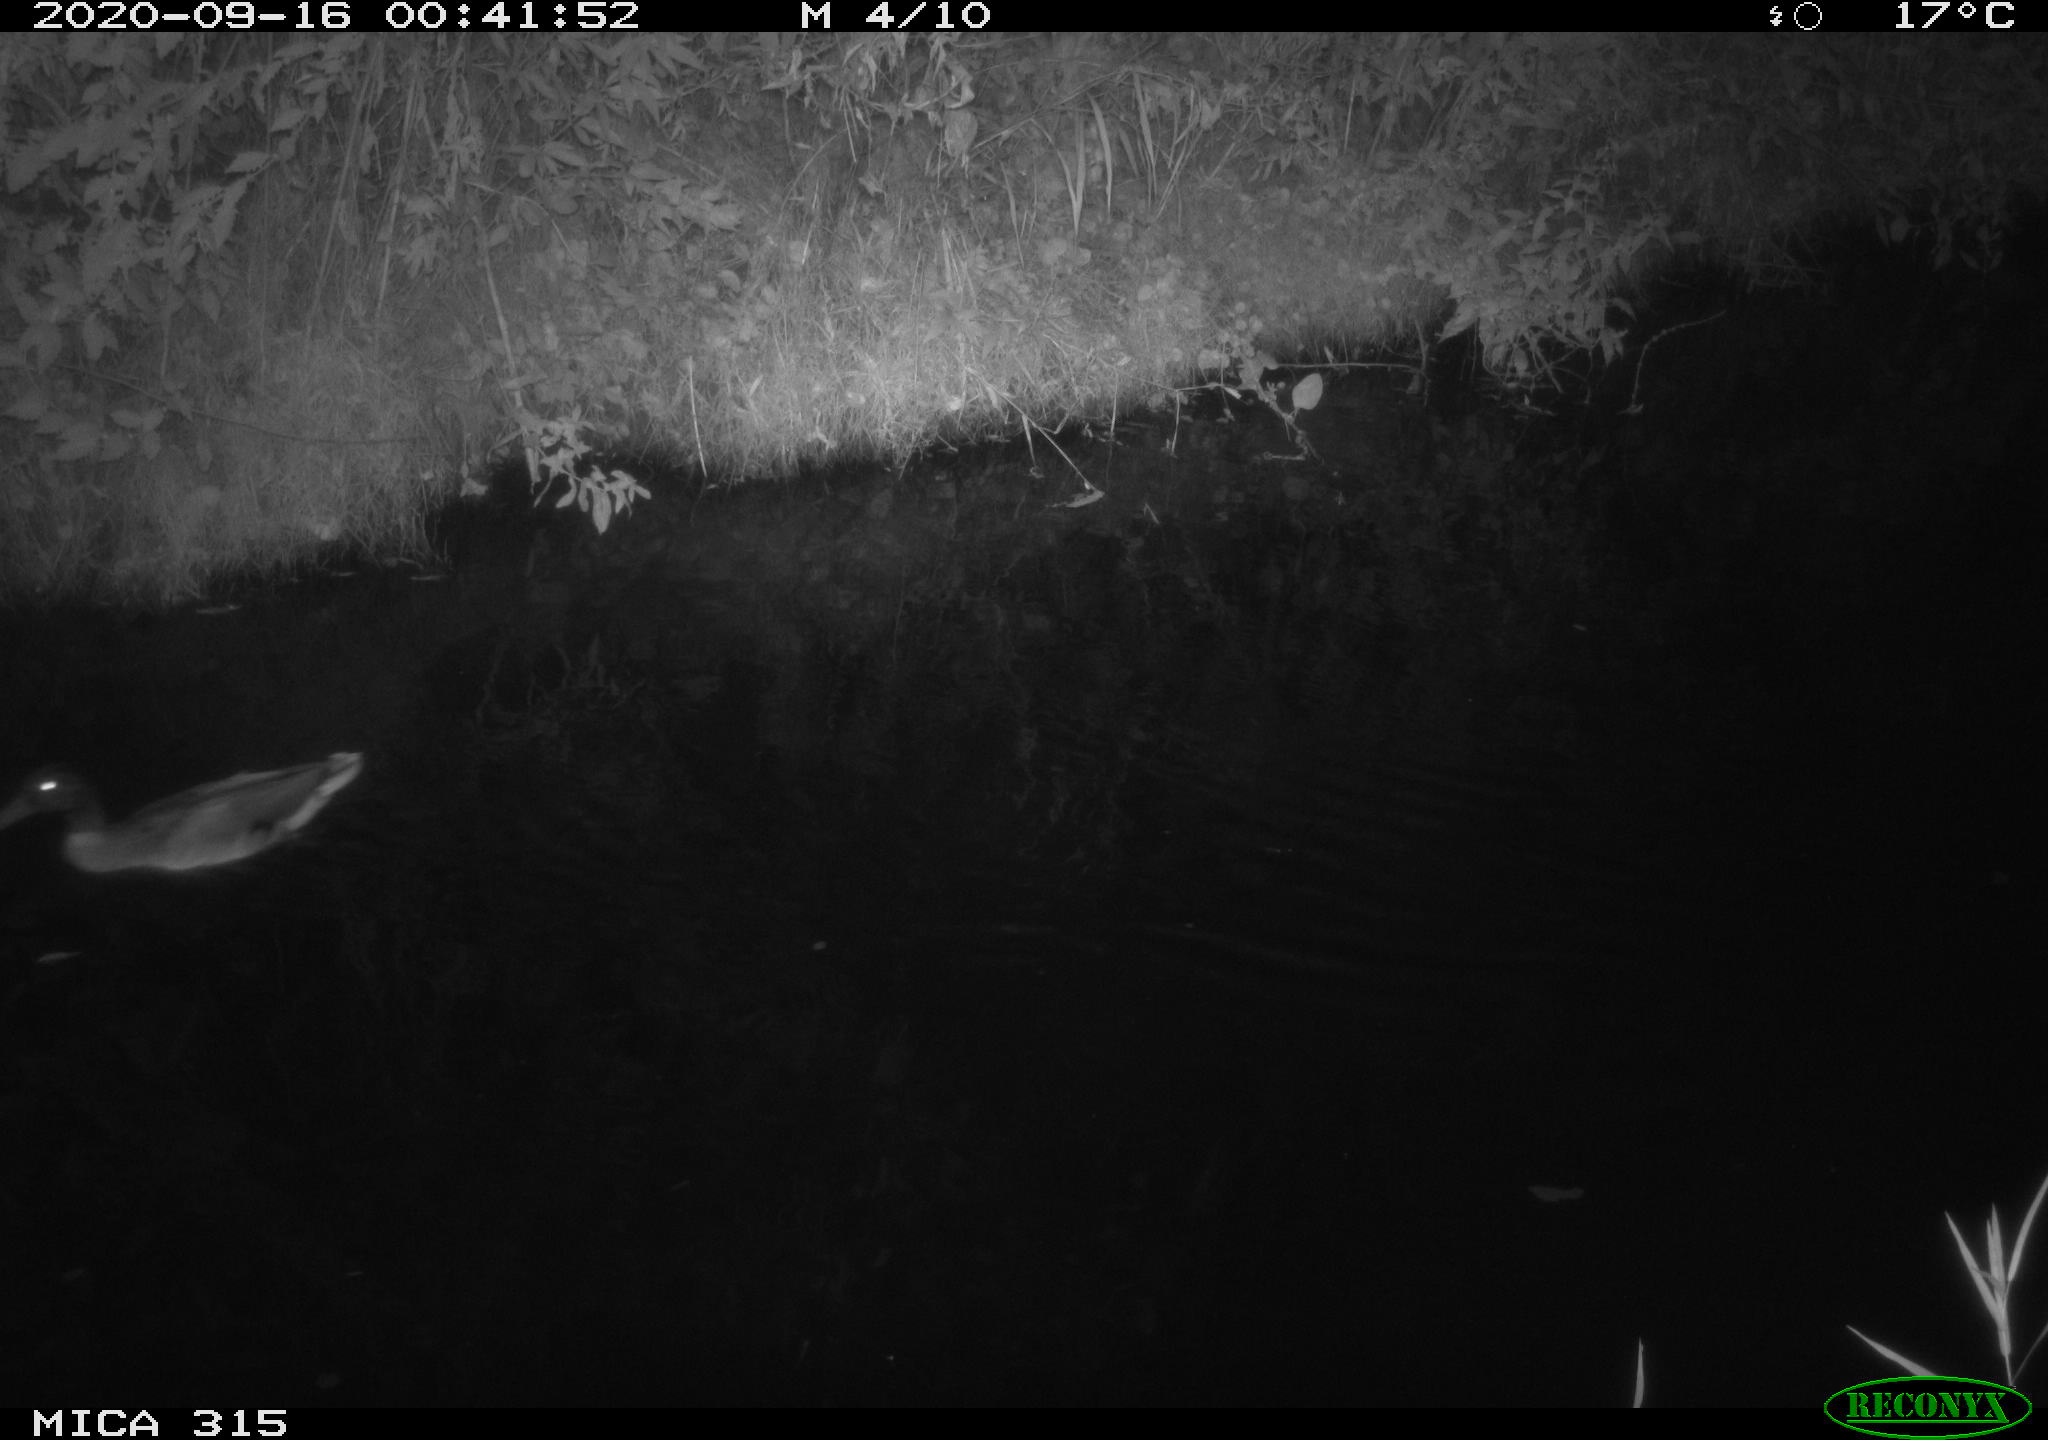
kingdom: Animalia
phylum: Chordata
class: Aves
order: Anseriformes
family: Anatidae
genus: Anas
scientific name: Anas platyrhynchos
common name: Mallard
